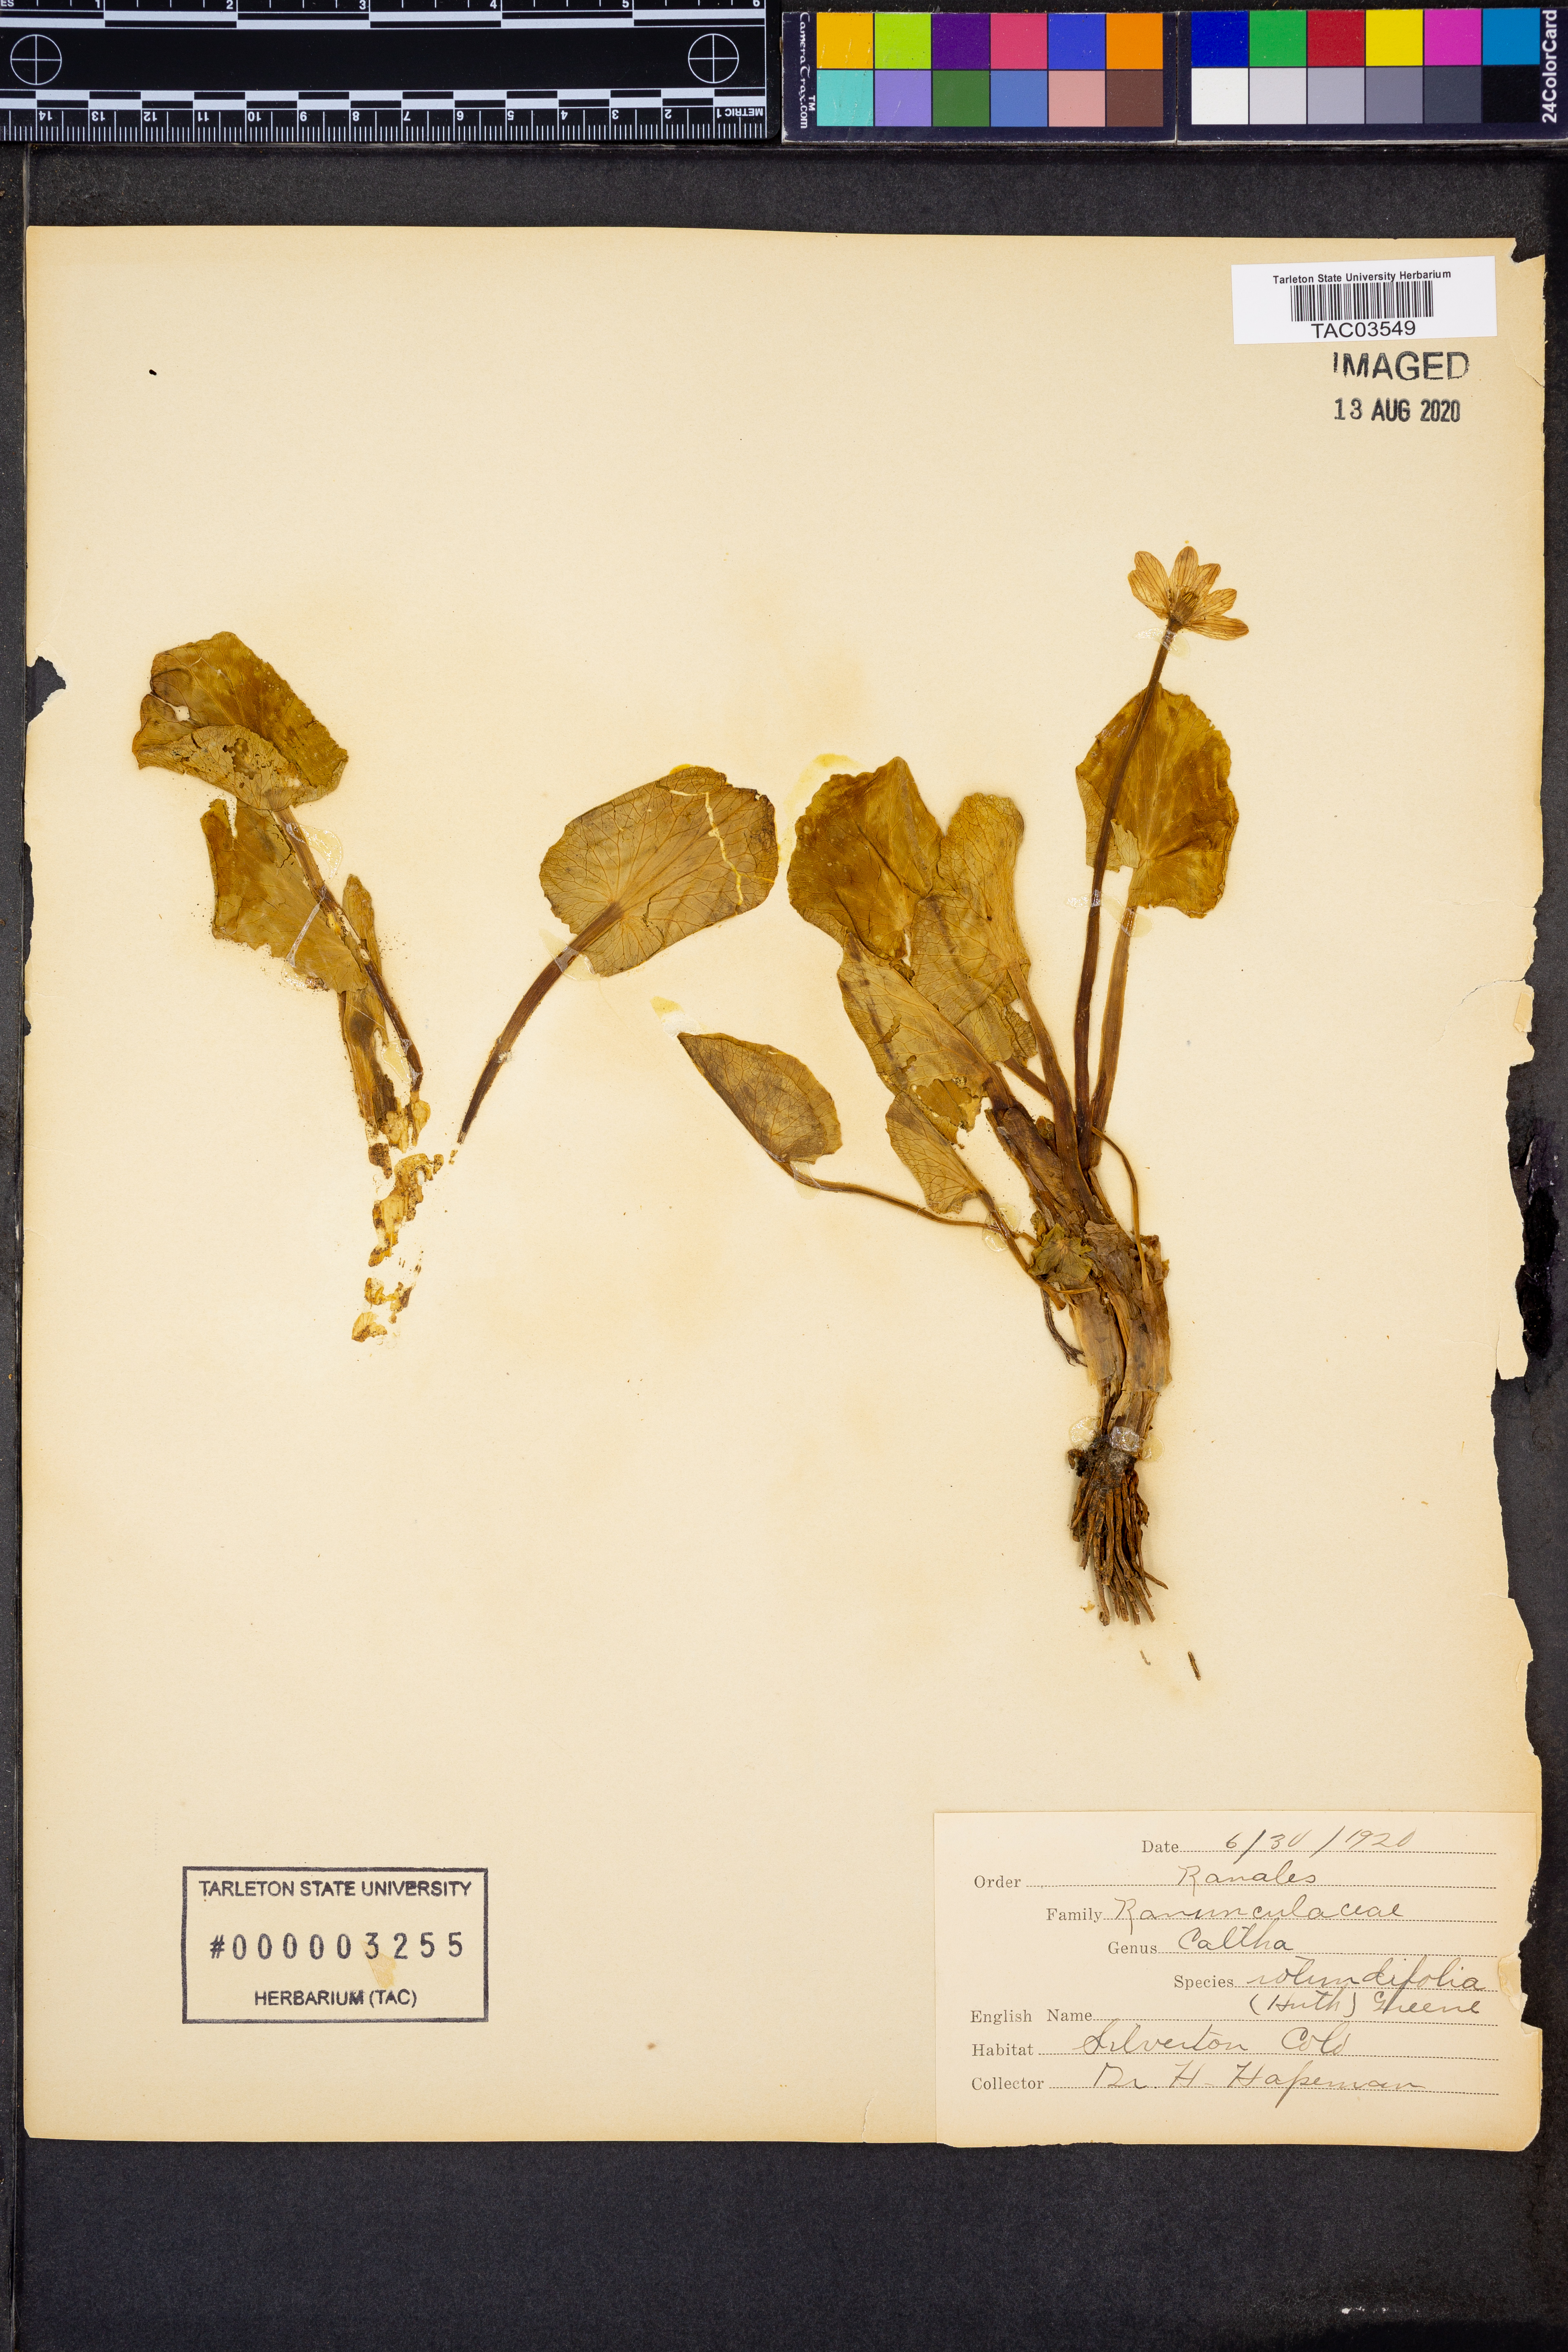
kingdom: Plantae
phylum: Tracheophyta
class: Magnoliopsida
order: Ranunculales
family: Ranunculaceae
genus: Caltha
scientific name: Caltha leptosepala
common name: Elkslip
